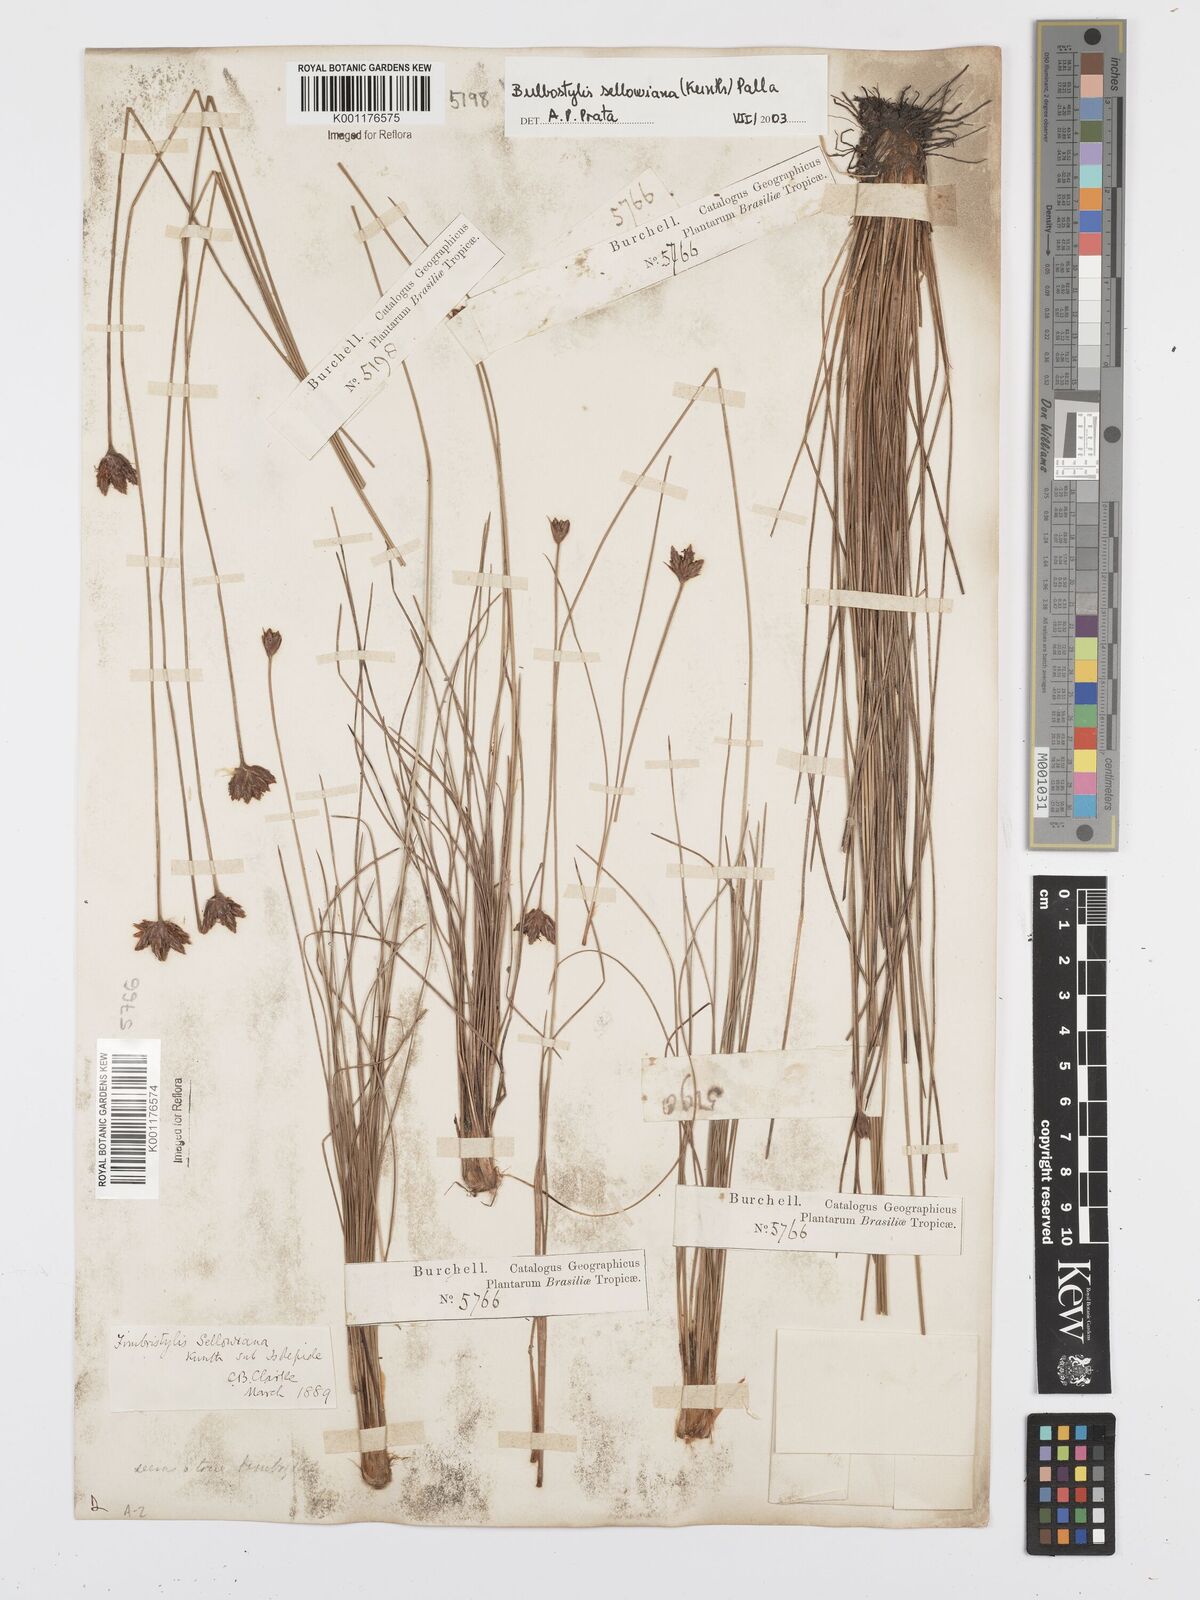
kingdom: Plantae
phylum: Tracheophyta
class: Liliopsida
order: Poales
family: Cyperaceae
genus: Bulbostylis
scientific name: Bulbostylis sellowiana
